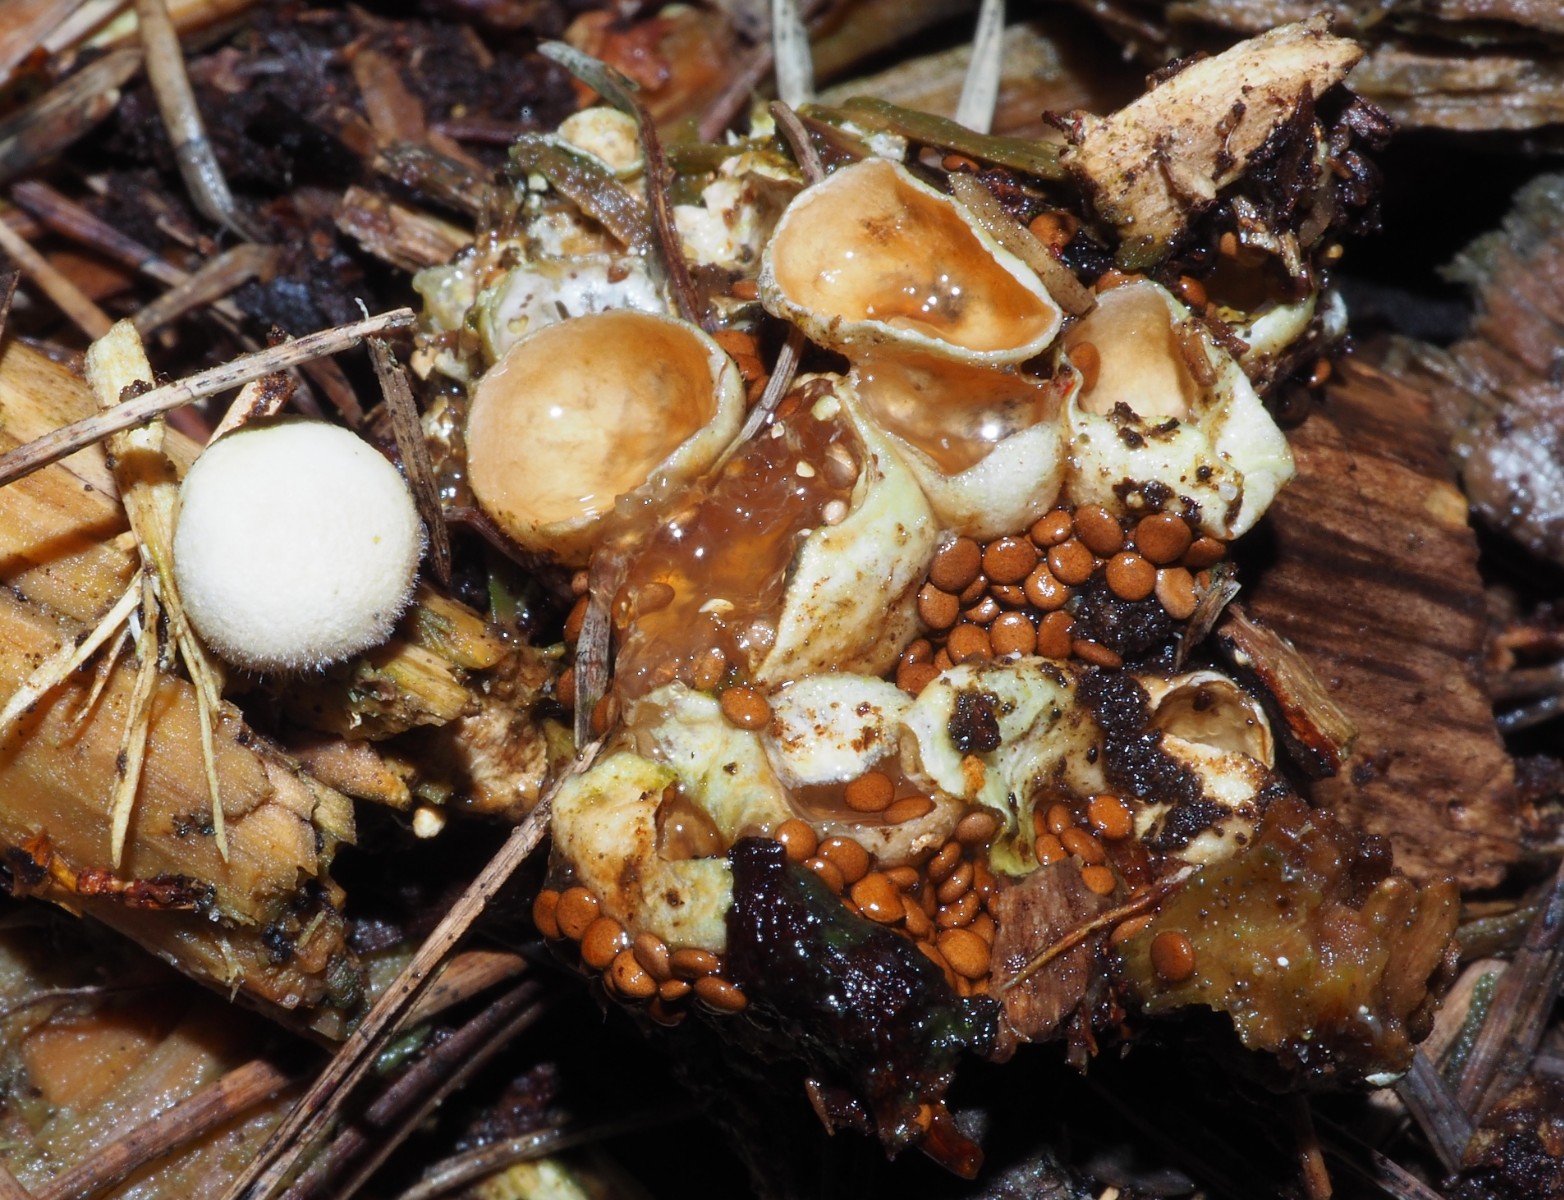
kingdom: Fungi
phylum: Basidiomycota
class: Agaricomycetes
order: Agaricales
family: Agaricaceae
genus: Nidularia
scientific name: Nidularia deformis
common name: pudesvamp
